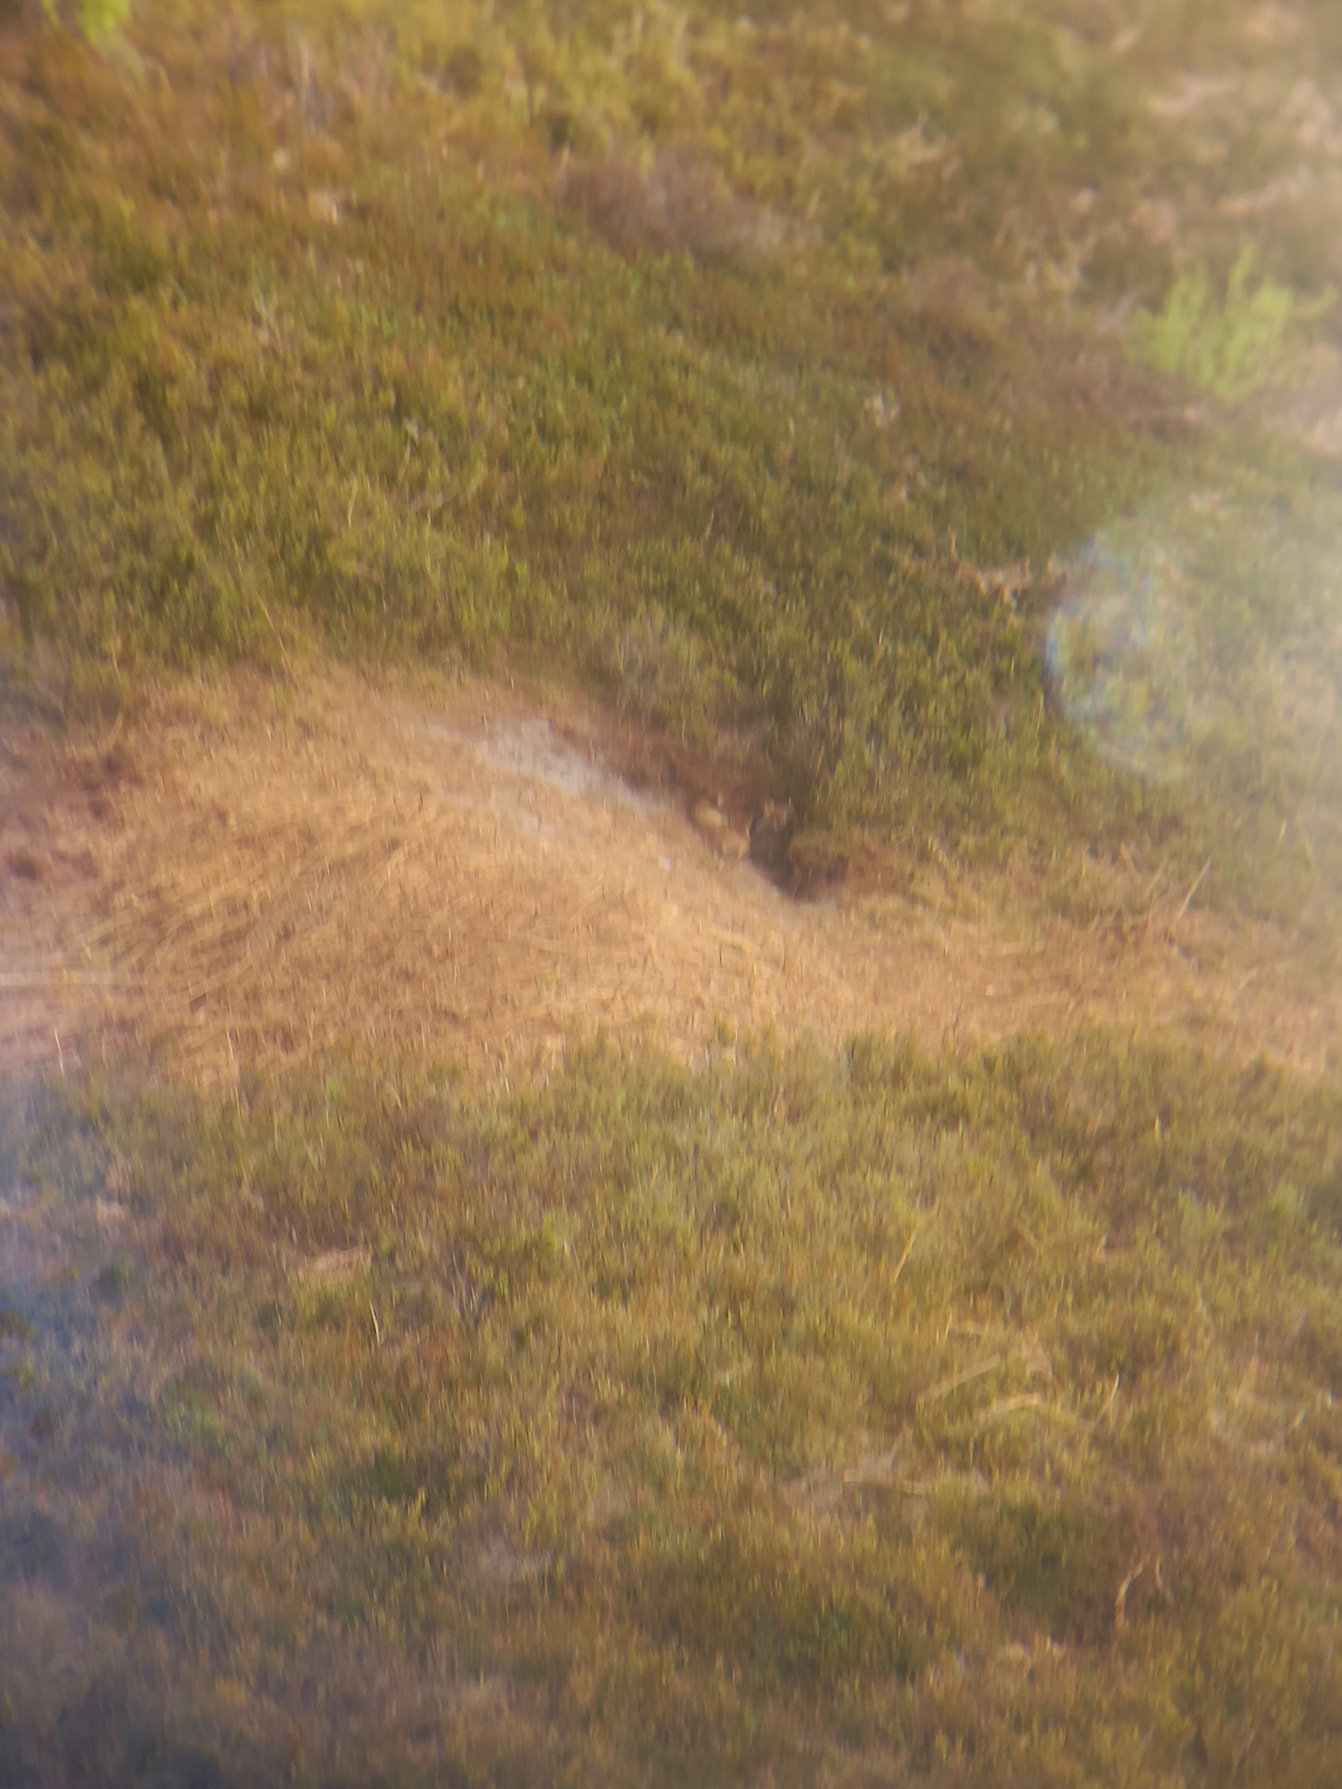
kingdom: Animalia
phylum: Chordata
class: Mammalia
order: Carnivora
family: Canidae
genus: Vulpes
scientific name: Vulpes vulpes
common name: Ræv
